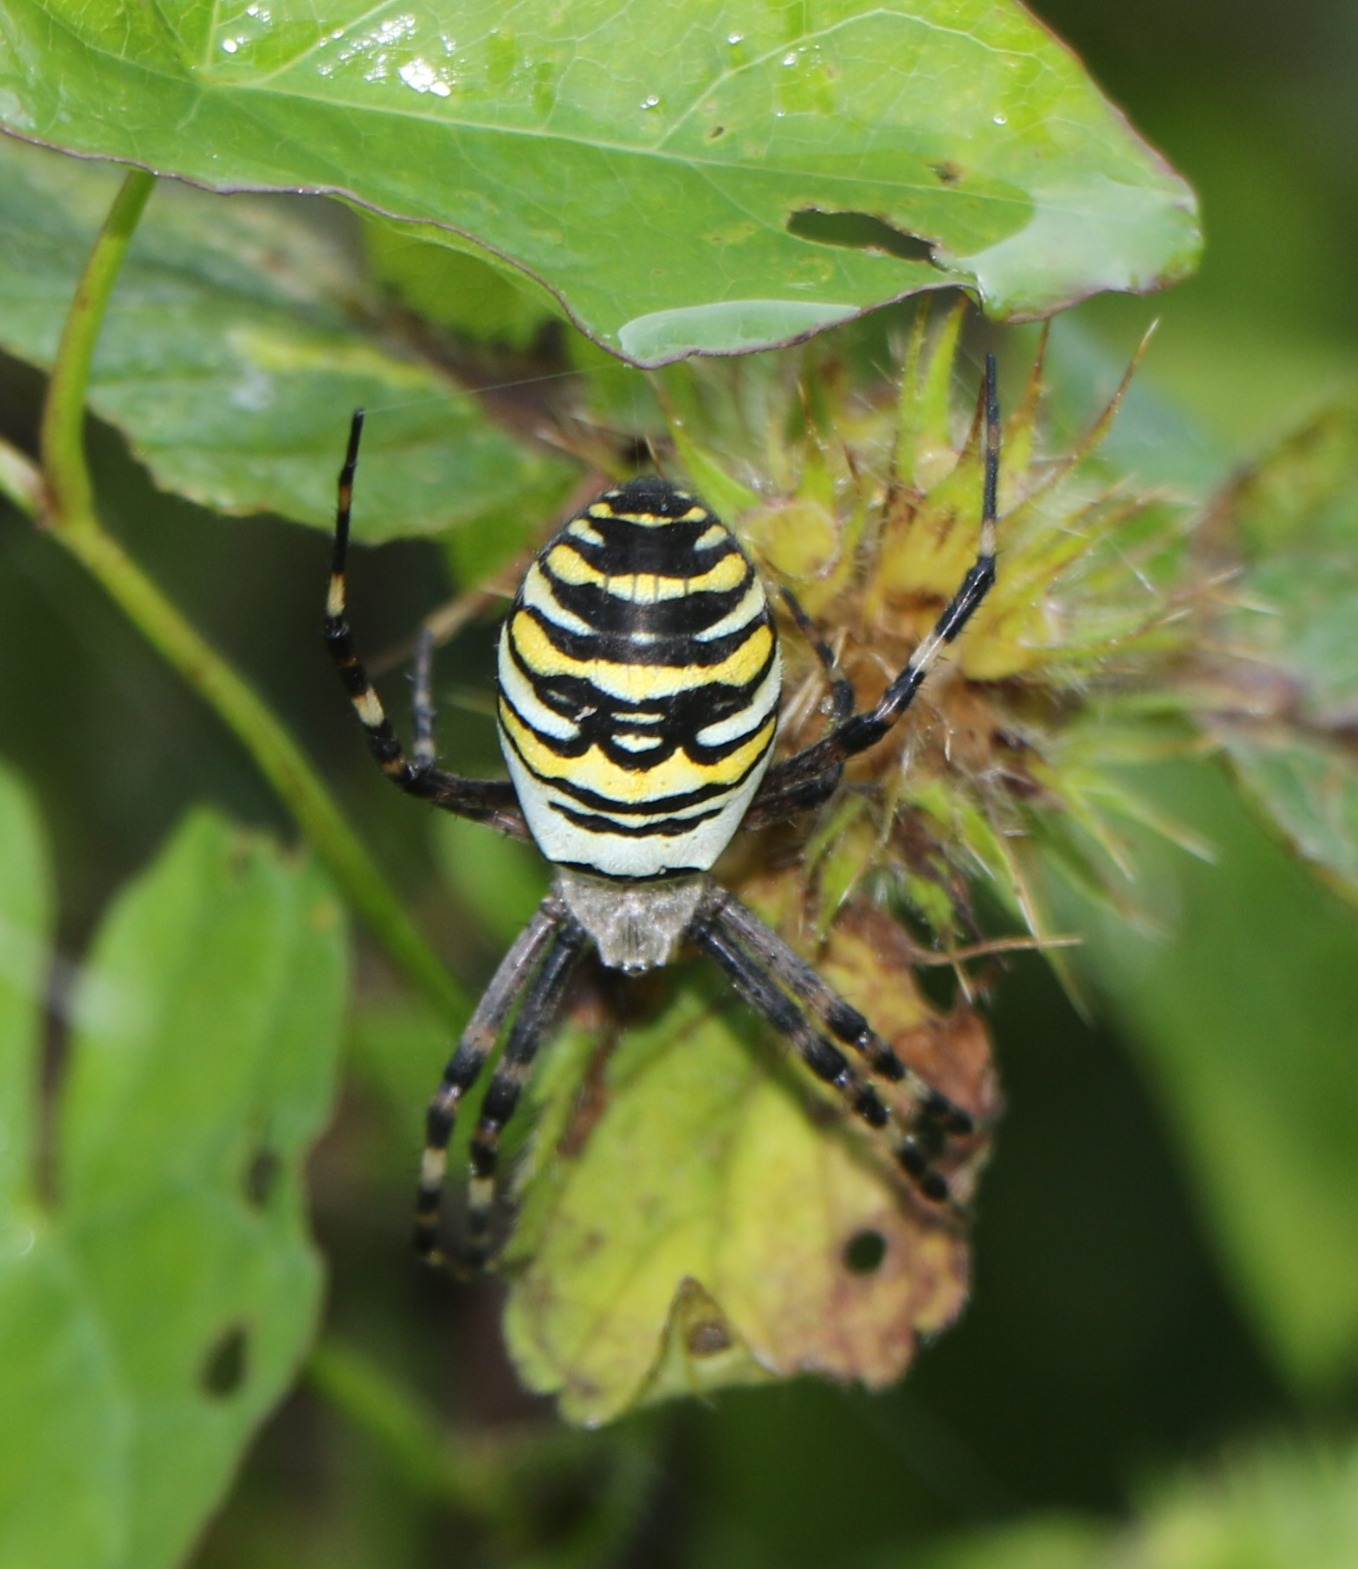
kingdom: Animalia
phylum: Arthropoda
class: Arachnida
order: Araneae
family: Araneidae
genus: Argiope
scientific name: Argiope bruennichi
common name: Hvepseedderkop
